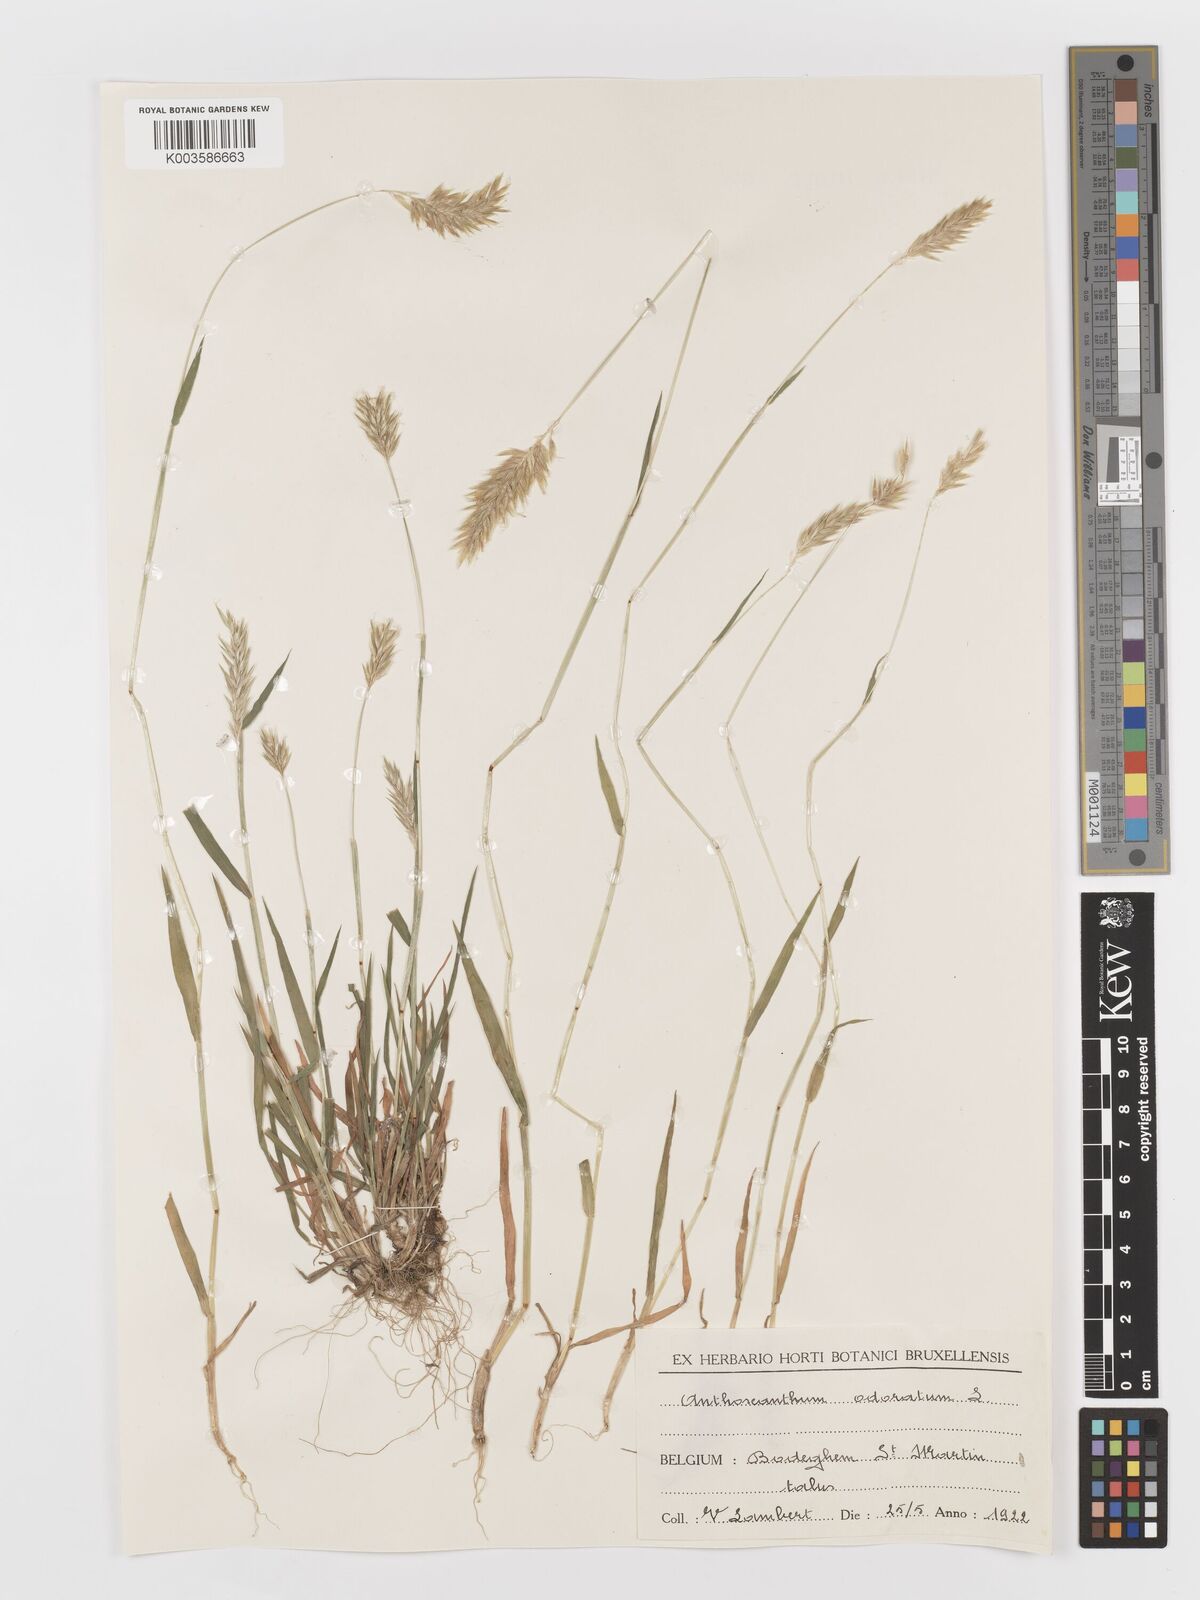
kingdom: Plantae
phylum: Tracheophyta
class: Liliopsida
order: Poales
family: Poaceae
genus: Anthoxanthum
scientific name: Anthoxanthum odoratum
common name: Sweet vernalgrass
